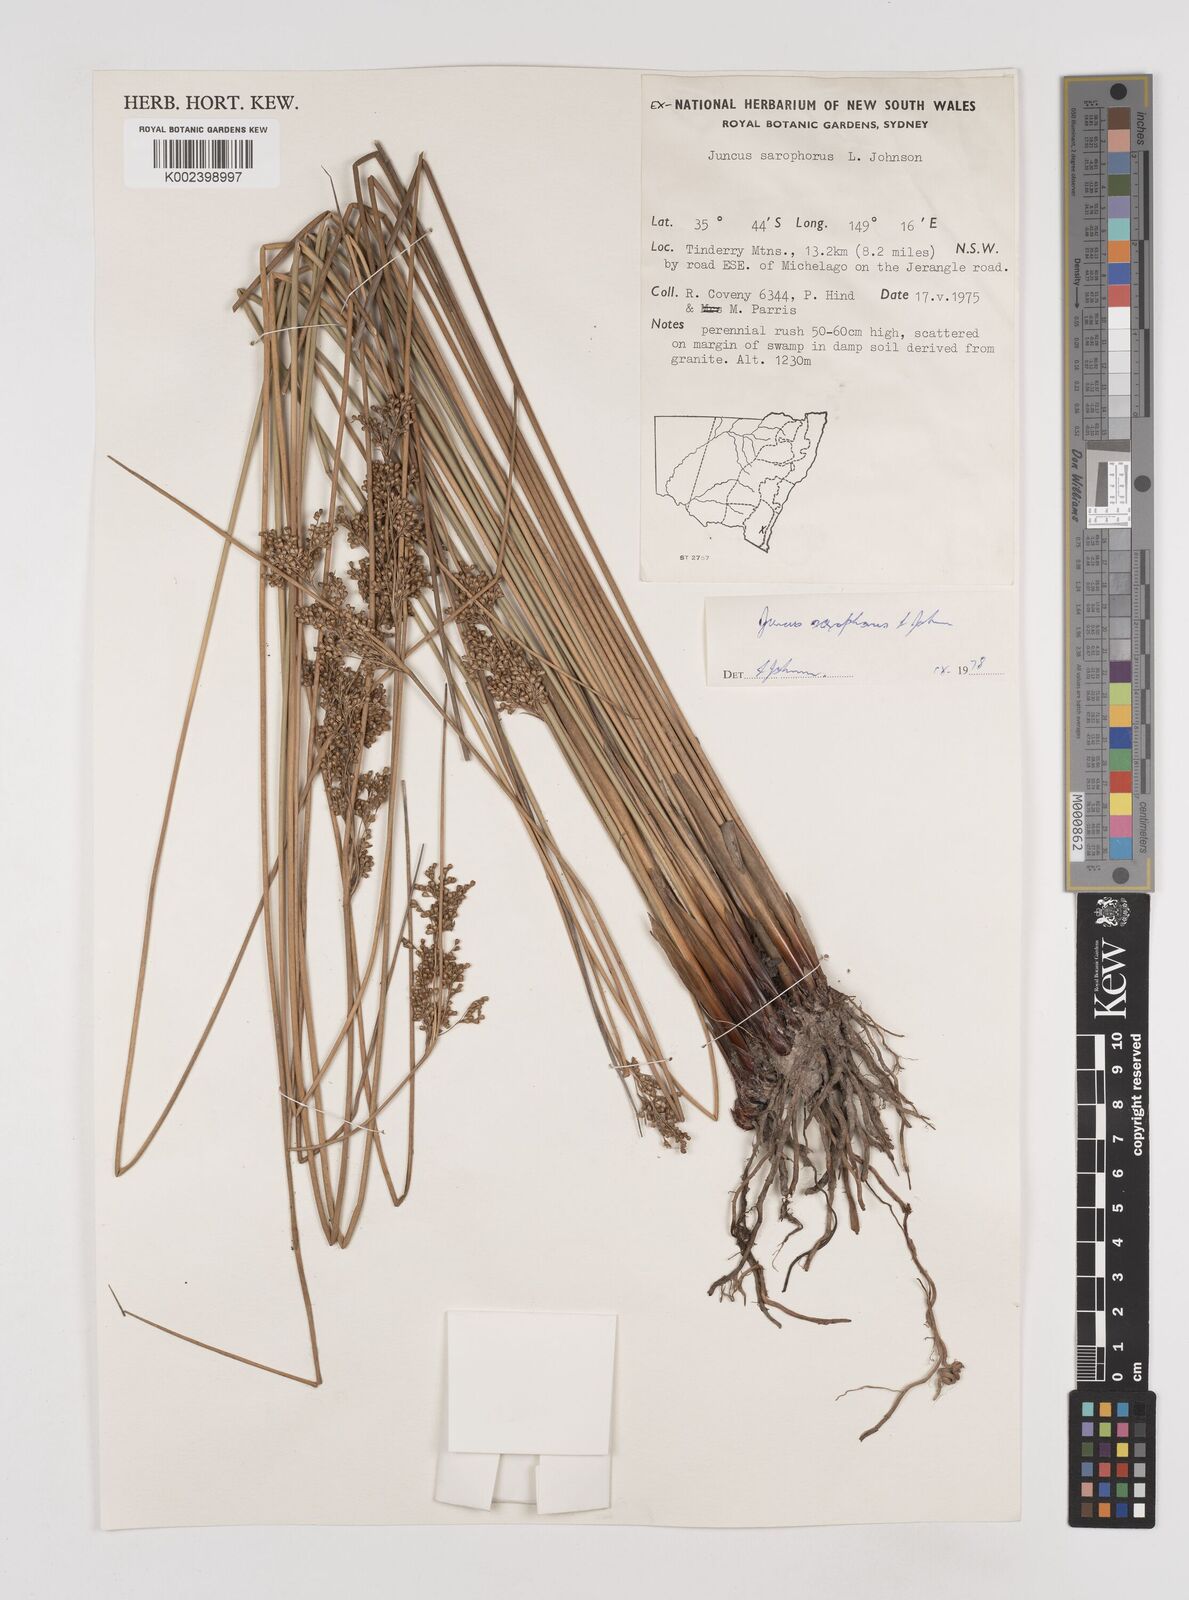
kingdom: Plantae
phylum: Tracheophyta
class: Liliopsida
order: Poales
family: Juncaceae
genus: Juncus
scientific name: Juncus sarophorus
